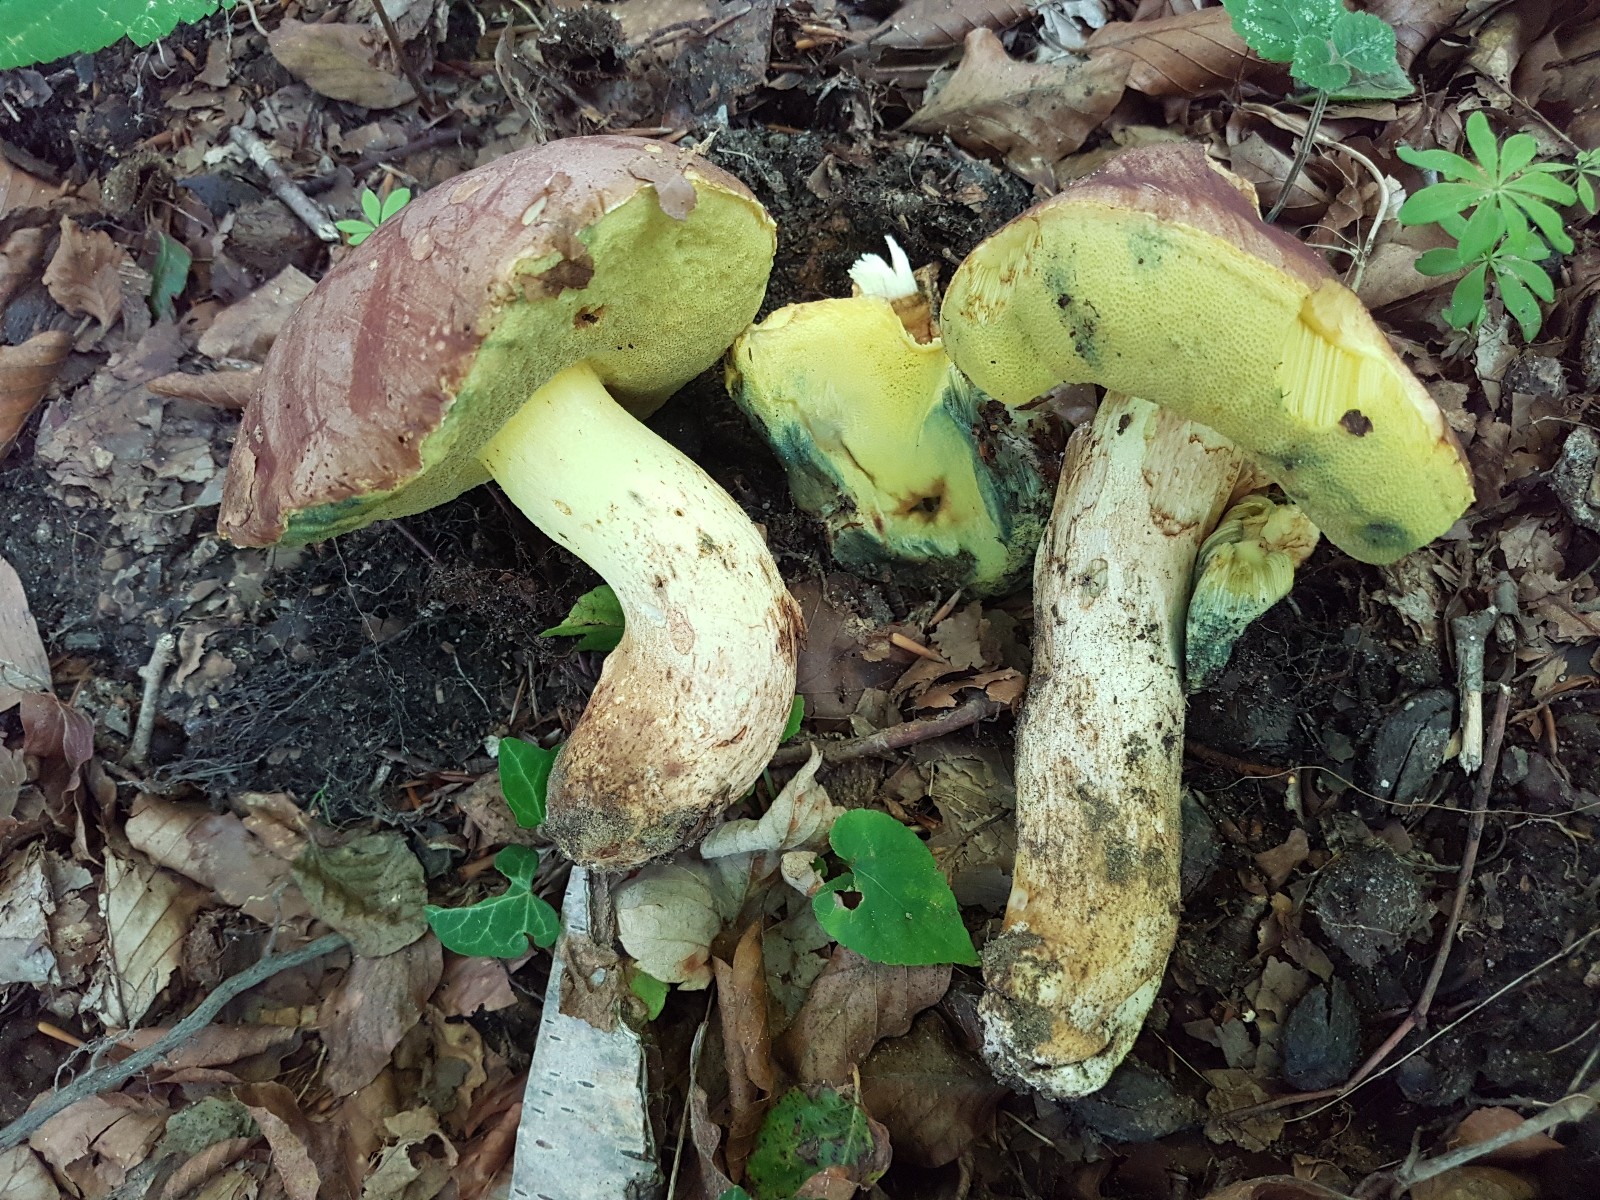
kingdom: Fungi
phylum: Basidiomycota
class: Agaricomycetes
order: Boletales
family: Boletaceae
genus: Butyriboletus
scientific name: Butyriboletus appendiculatus
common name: tenstokket rørhat
